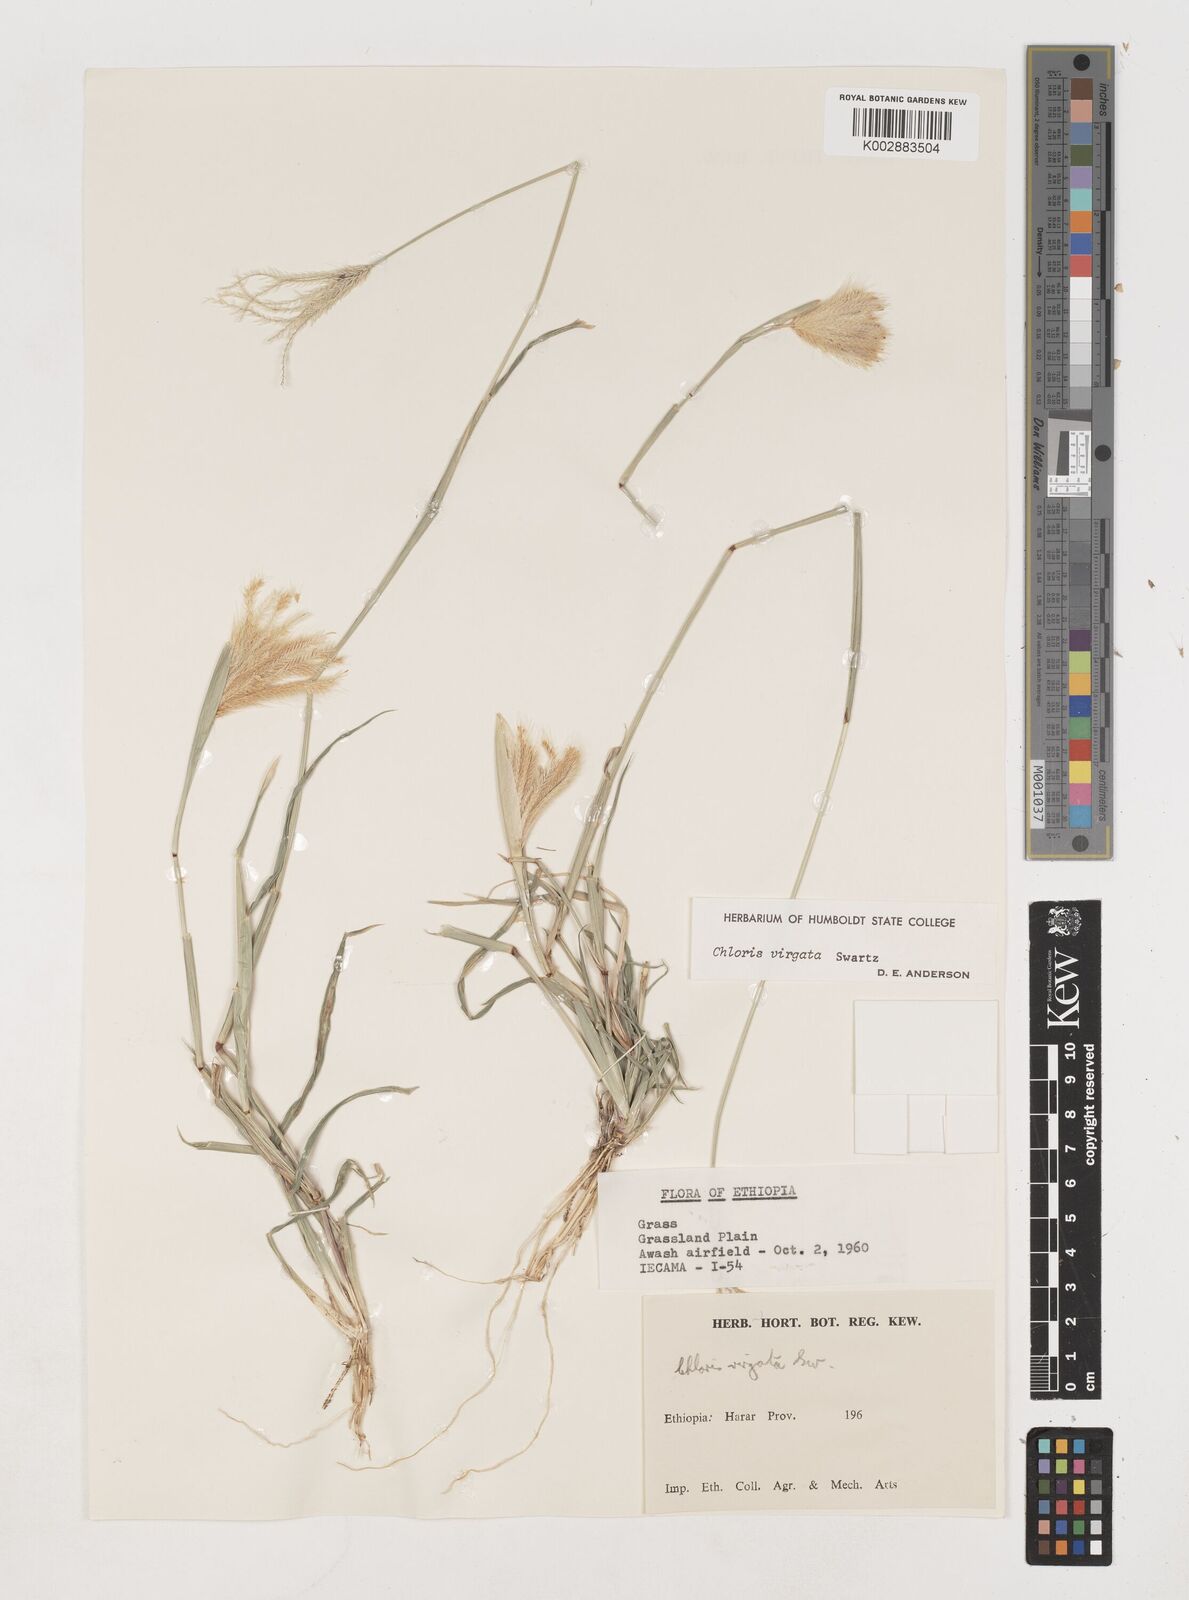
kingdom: Plantae
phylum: Tracheophyta
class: Liliopsida
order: Poales
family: Poaceae
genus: Chloris
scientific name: Chloris virgata
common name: Feathery rhodes-grass
